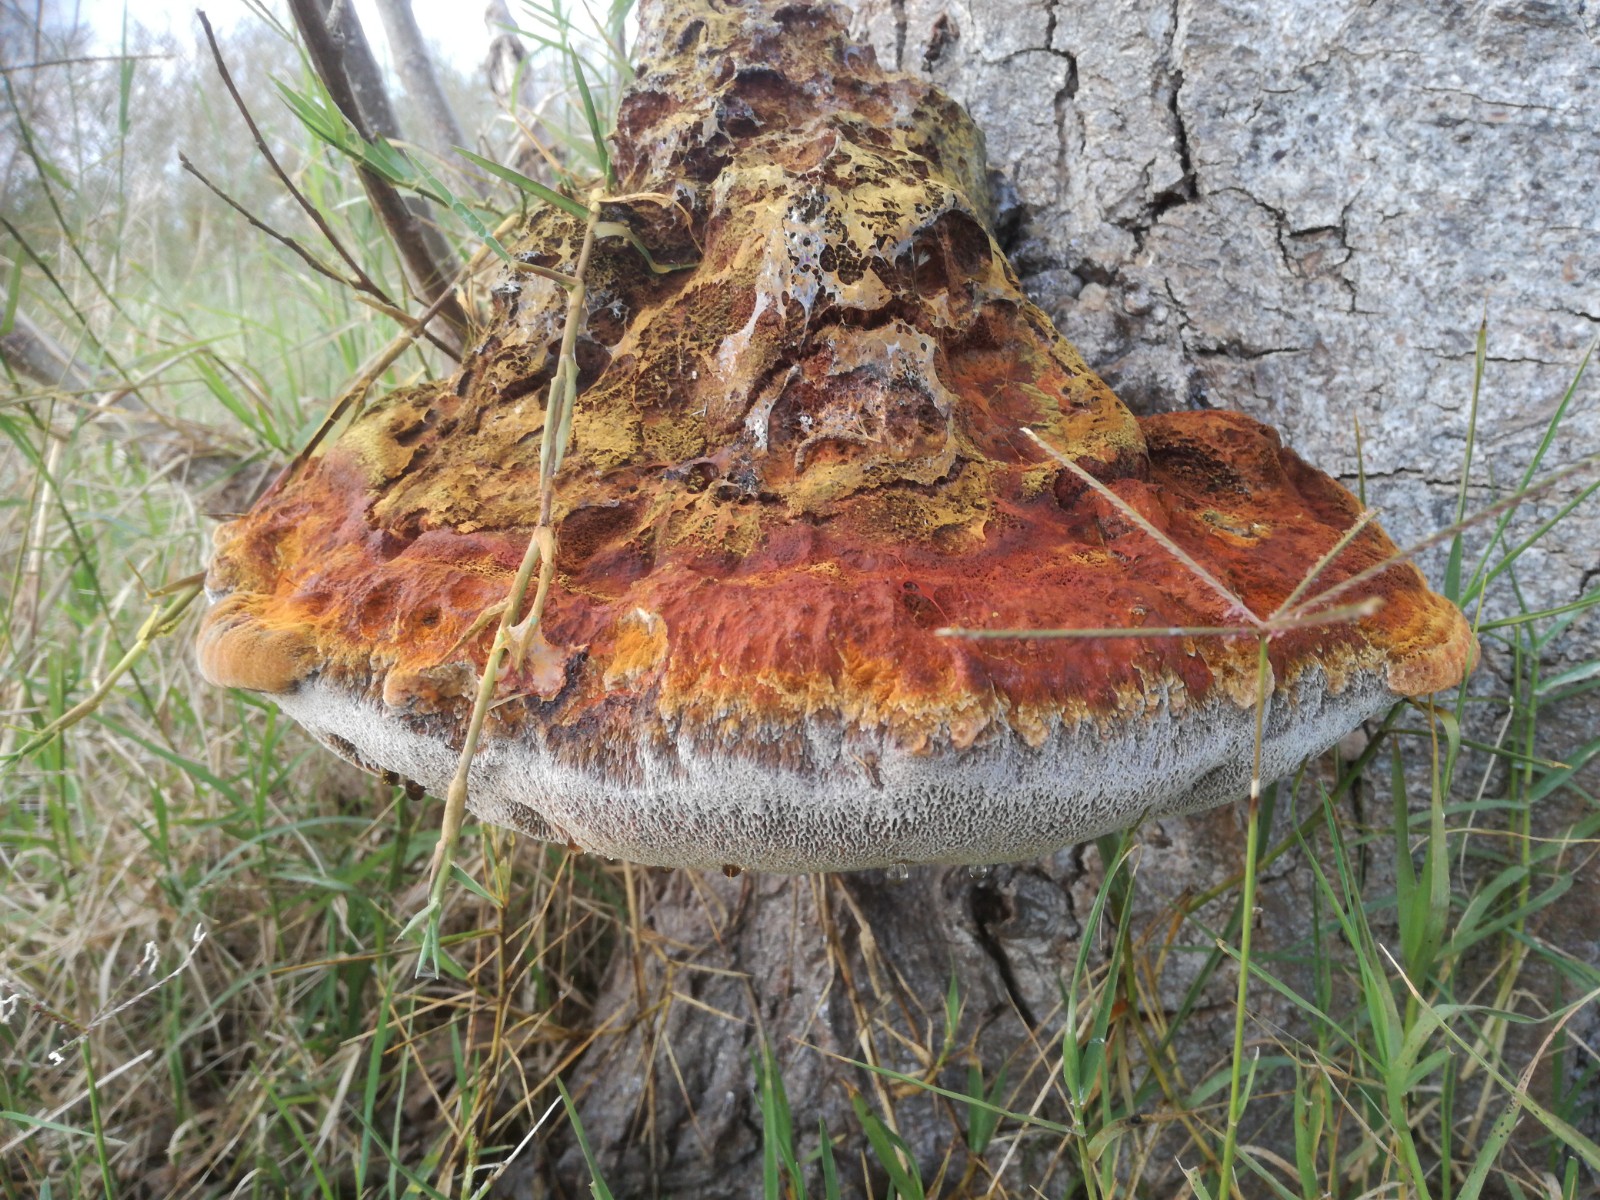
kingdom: Fungi
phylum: Basidiomycota
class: Agaricomycetes
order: Hymenochaetales
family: Hymenochaetaceae
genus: Inonotus
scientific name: Inonotus
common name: spejlporesvamp
